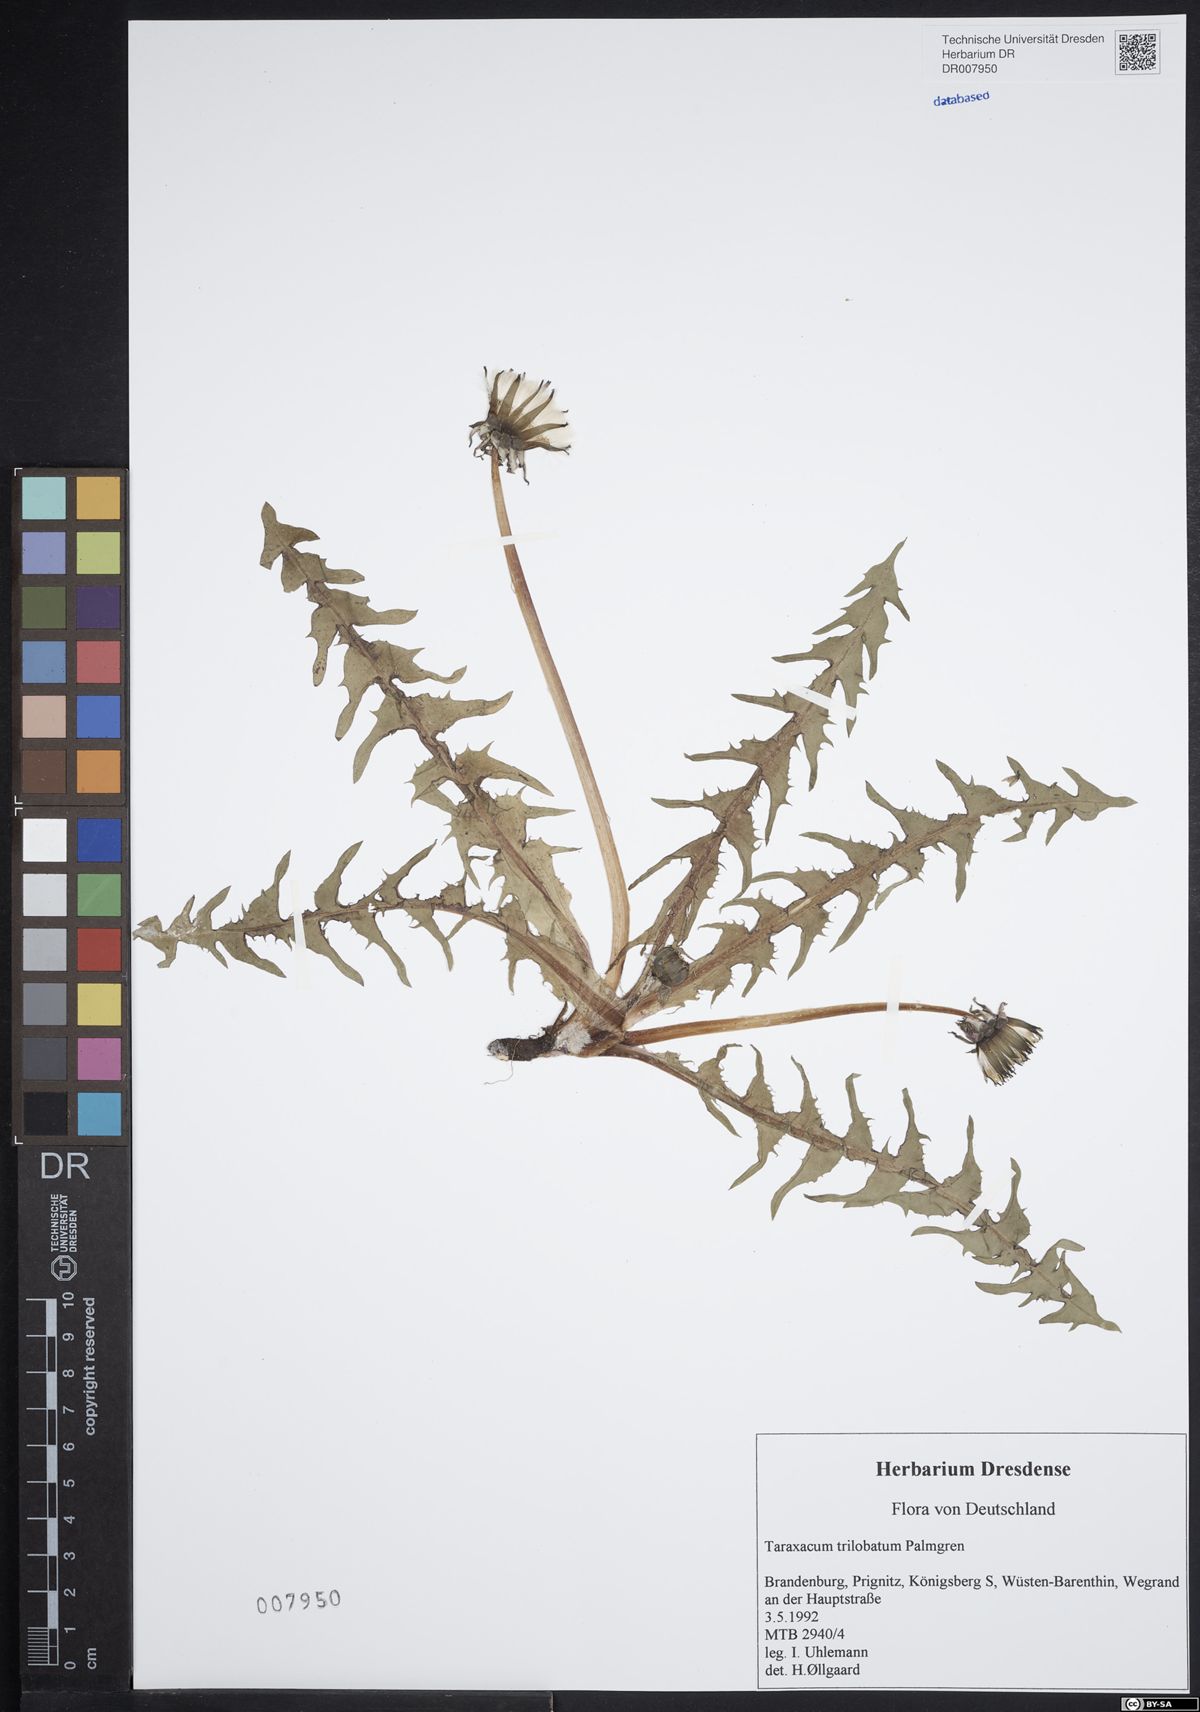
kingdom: Plantae
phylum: Tracheophyta
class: Magnoliopsida
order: Asterales
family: Asteraceae
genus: Taraxacum
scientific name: Taraxacum trilobatum
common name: Three-lobed dandelion
